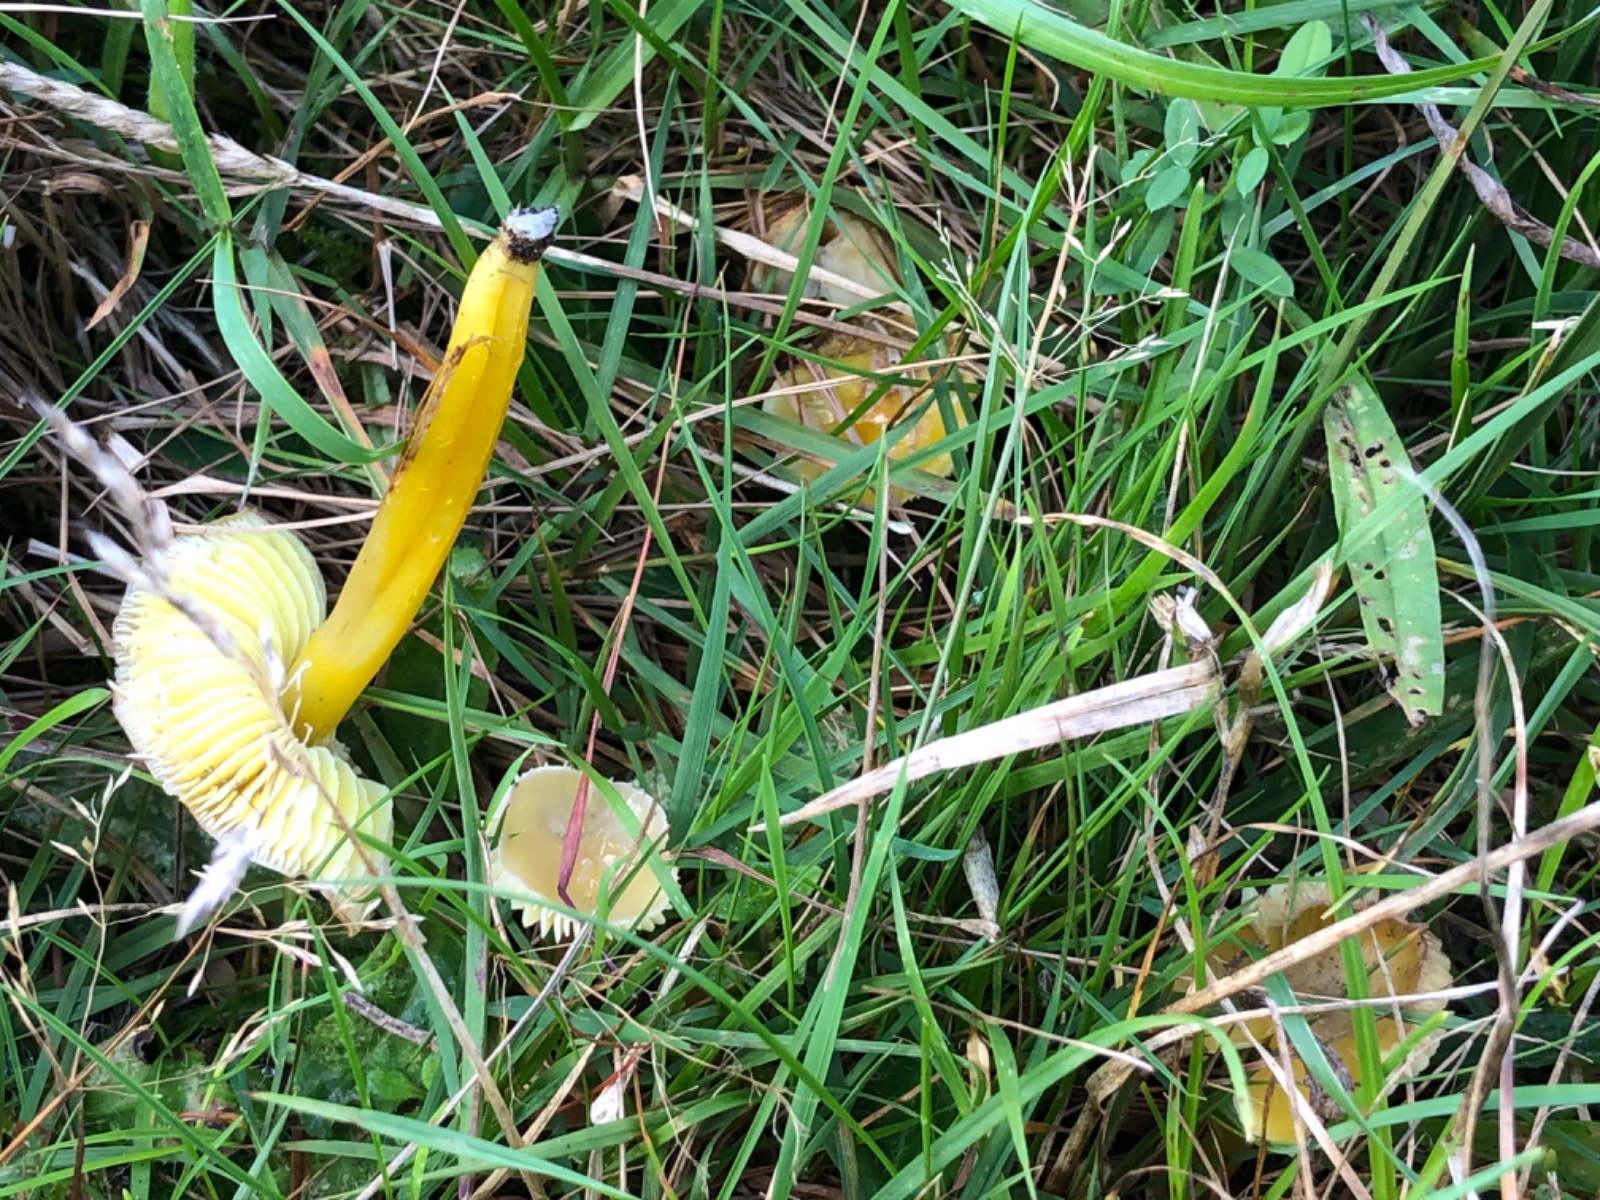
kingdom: Fungi
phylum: Basidiomycota
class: Agaricomycetes
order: Agaricales
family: Hygrophoraceae
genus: Hygrocybe
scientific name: Hygrocybe chlorophana
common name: gul vokshat
